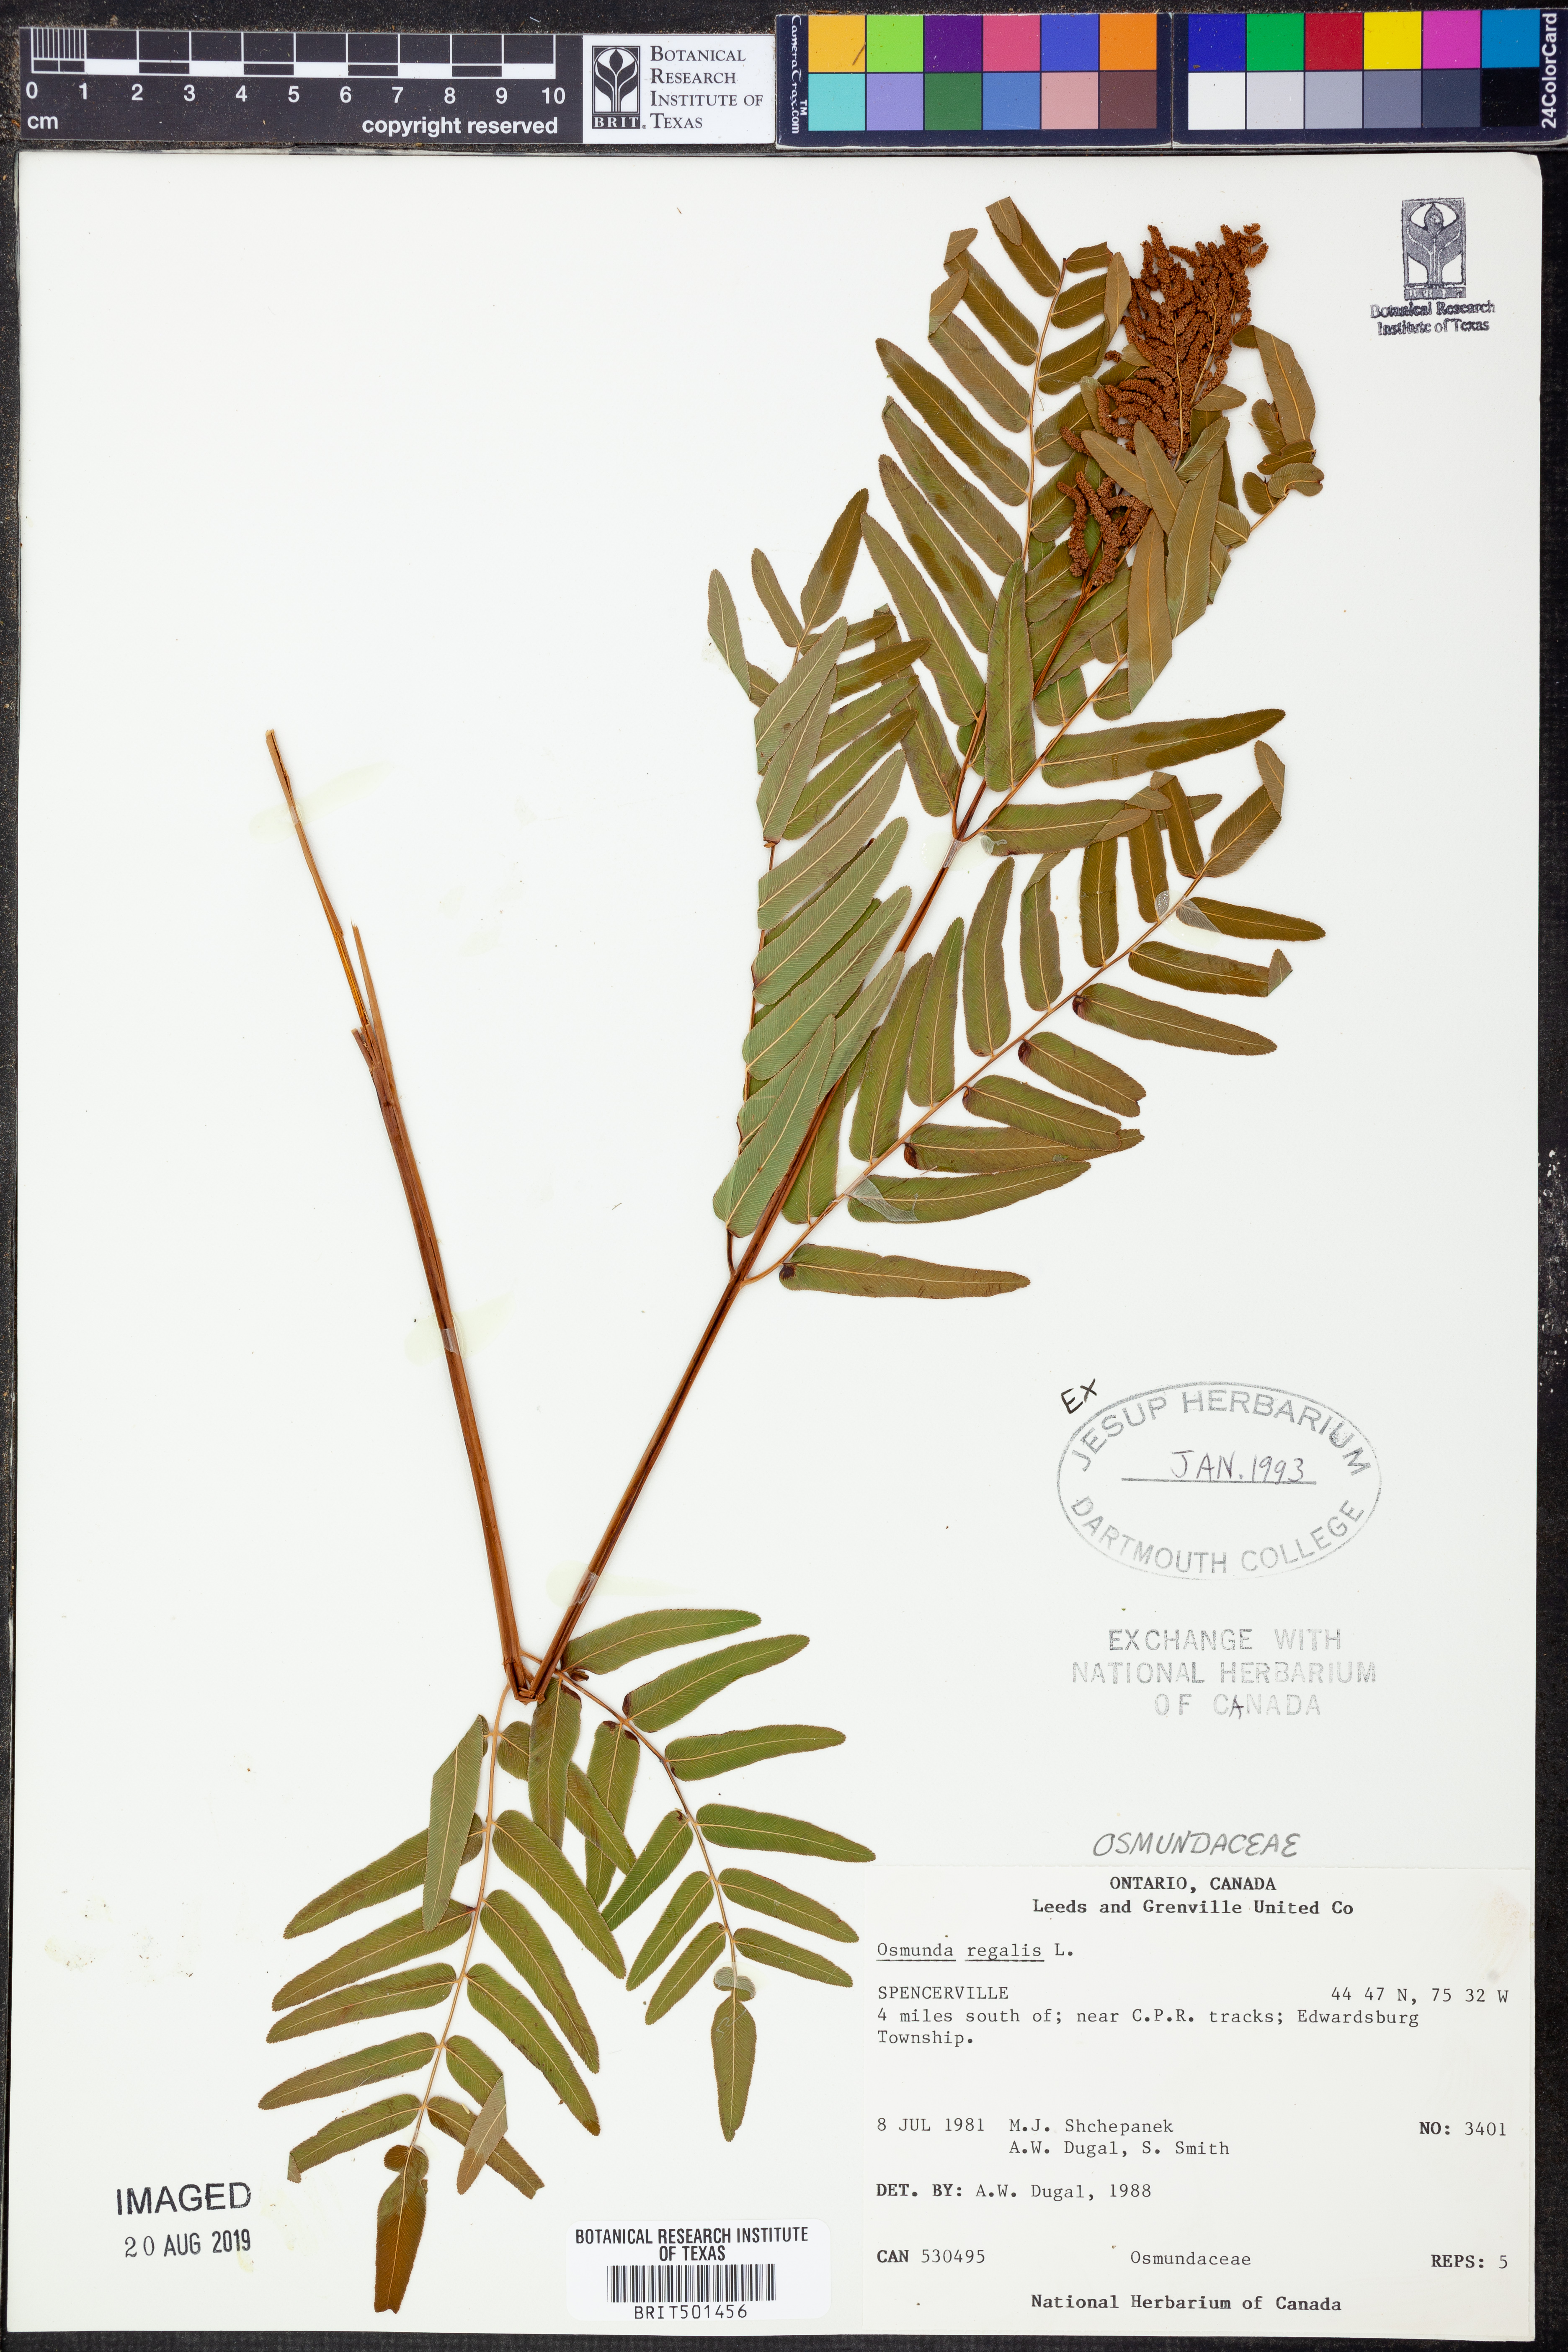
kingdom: Plantae
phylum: Tracheophyta
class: Polypodiopsida
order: Osmundales
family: Osmundaceae
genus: Osmunda
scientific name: Osmunda regalis
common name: Royal fern
